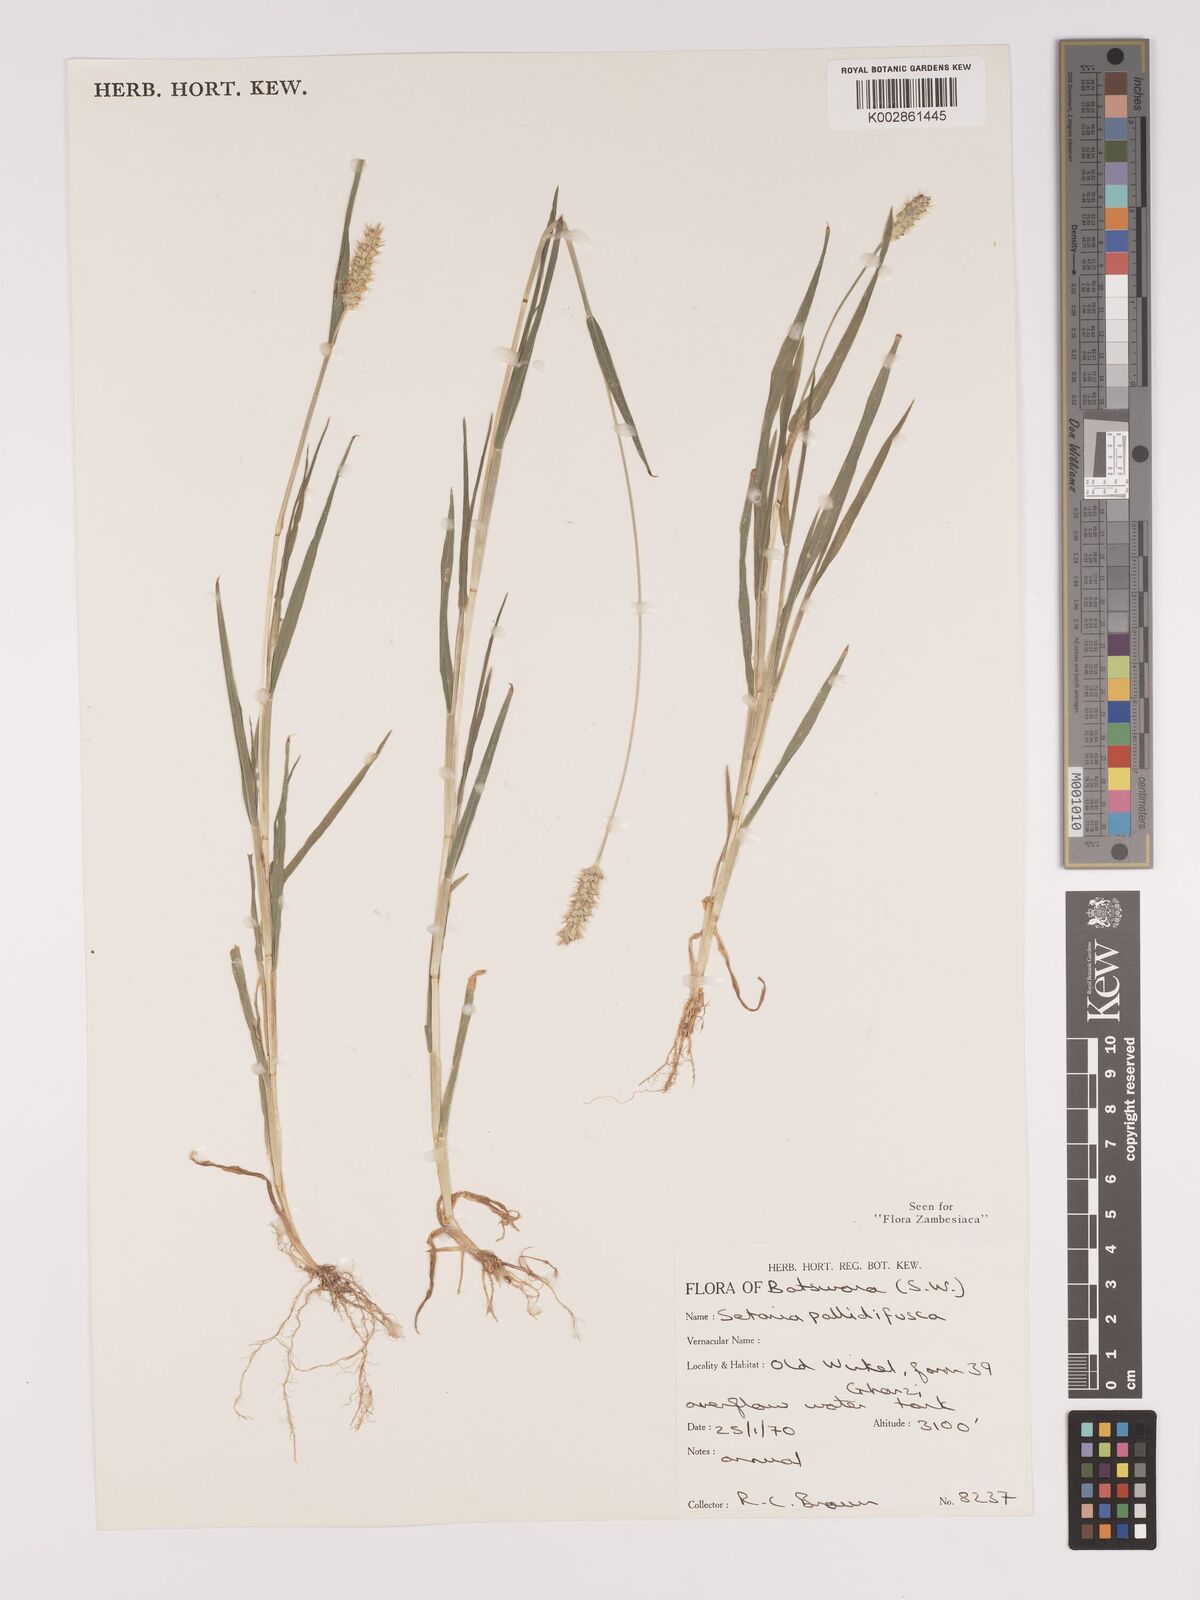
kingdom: Plantae
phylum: Tracheophyta
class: Liliopsida
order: Poales
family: Poaceae
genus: Setaria
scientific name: Setaria pumila
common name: Yellow bristle-grass
